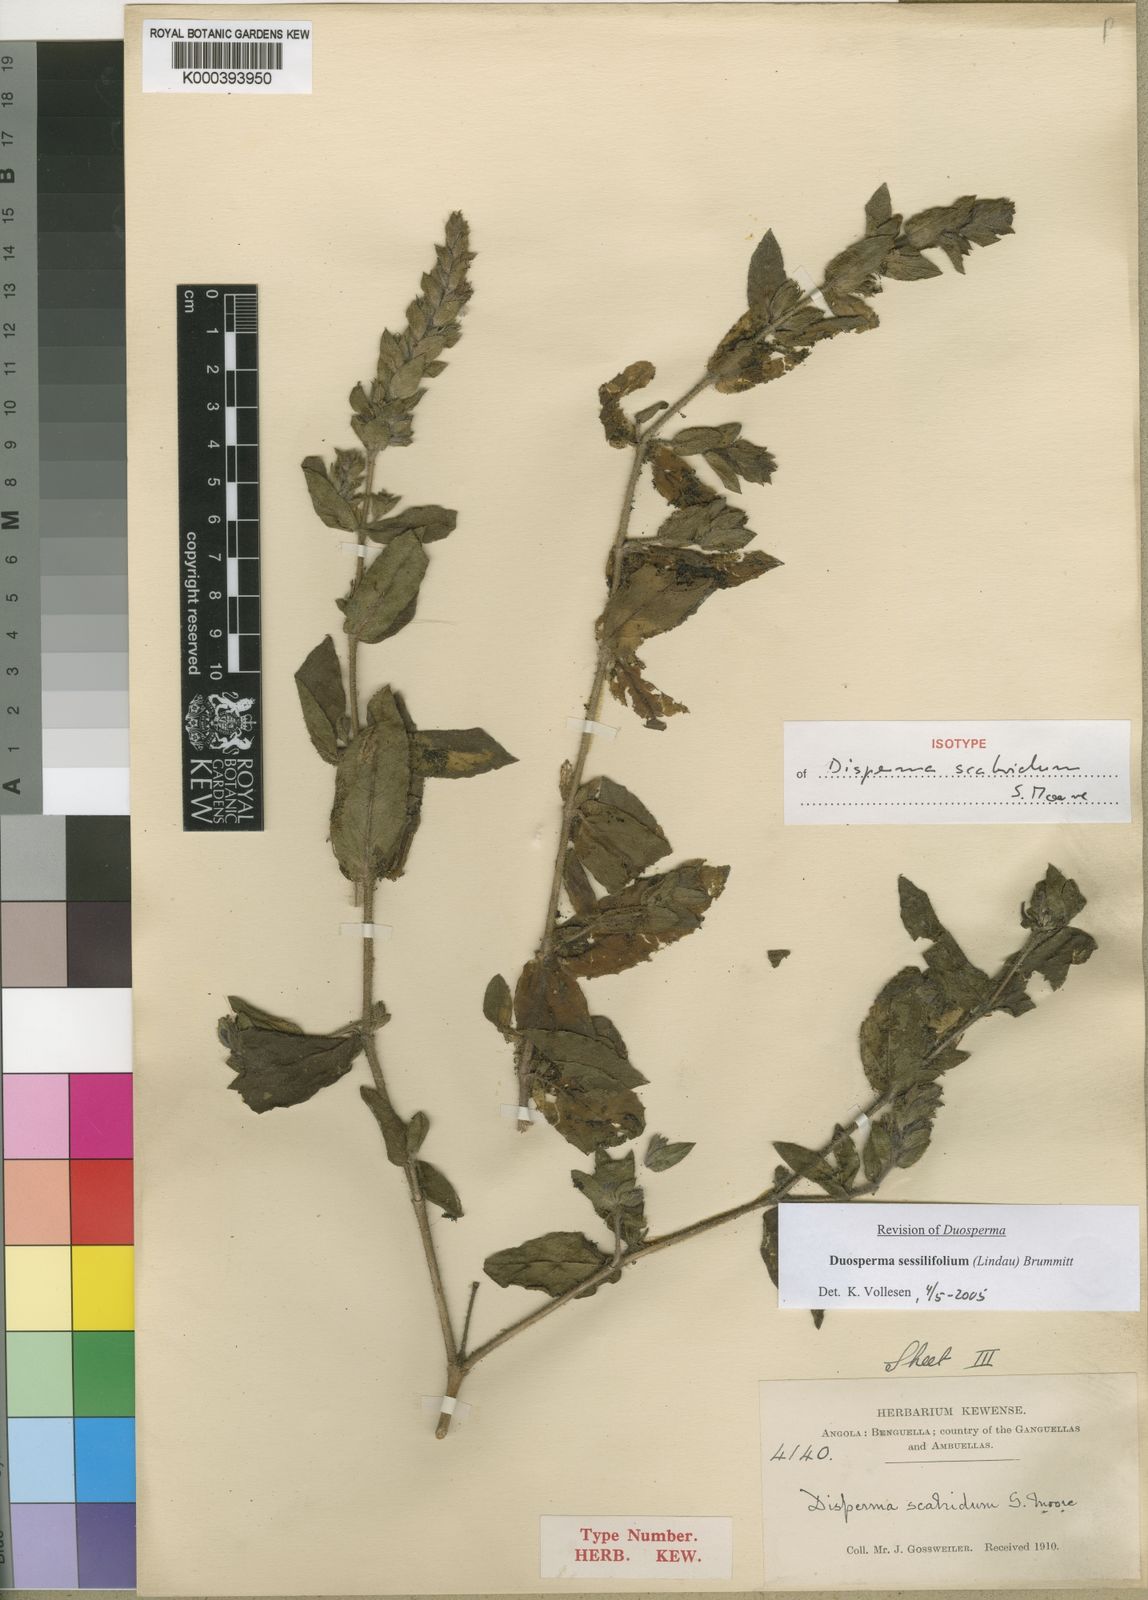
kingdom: Plantae
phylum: Tracheophyta
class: Magnoliopsida
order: Lamiales
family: Acanthaceae
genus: Duosperma
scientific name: Duosperma sessilifolium
